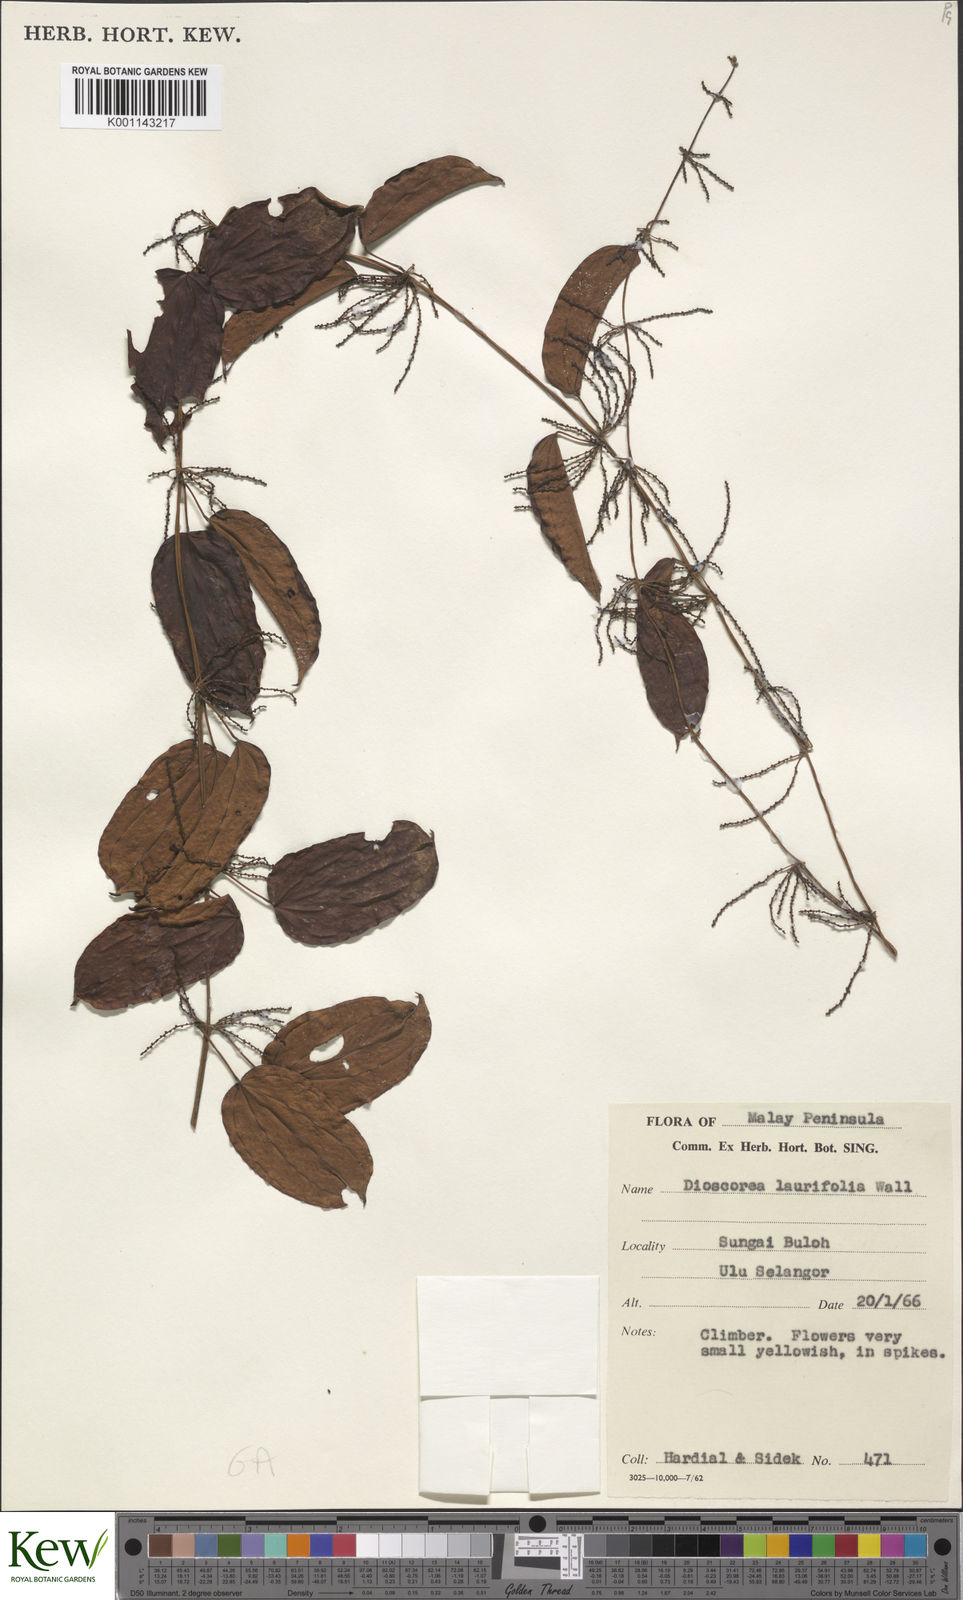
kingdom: Plantae
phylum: Tracheophyta
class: Liliopsida
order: Dioscoreales
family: Dioscoreaceae
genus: Dioscorea
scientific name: Dioscorea laurifolia
